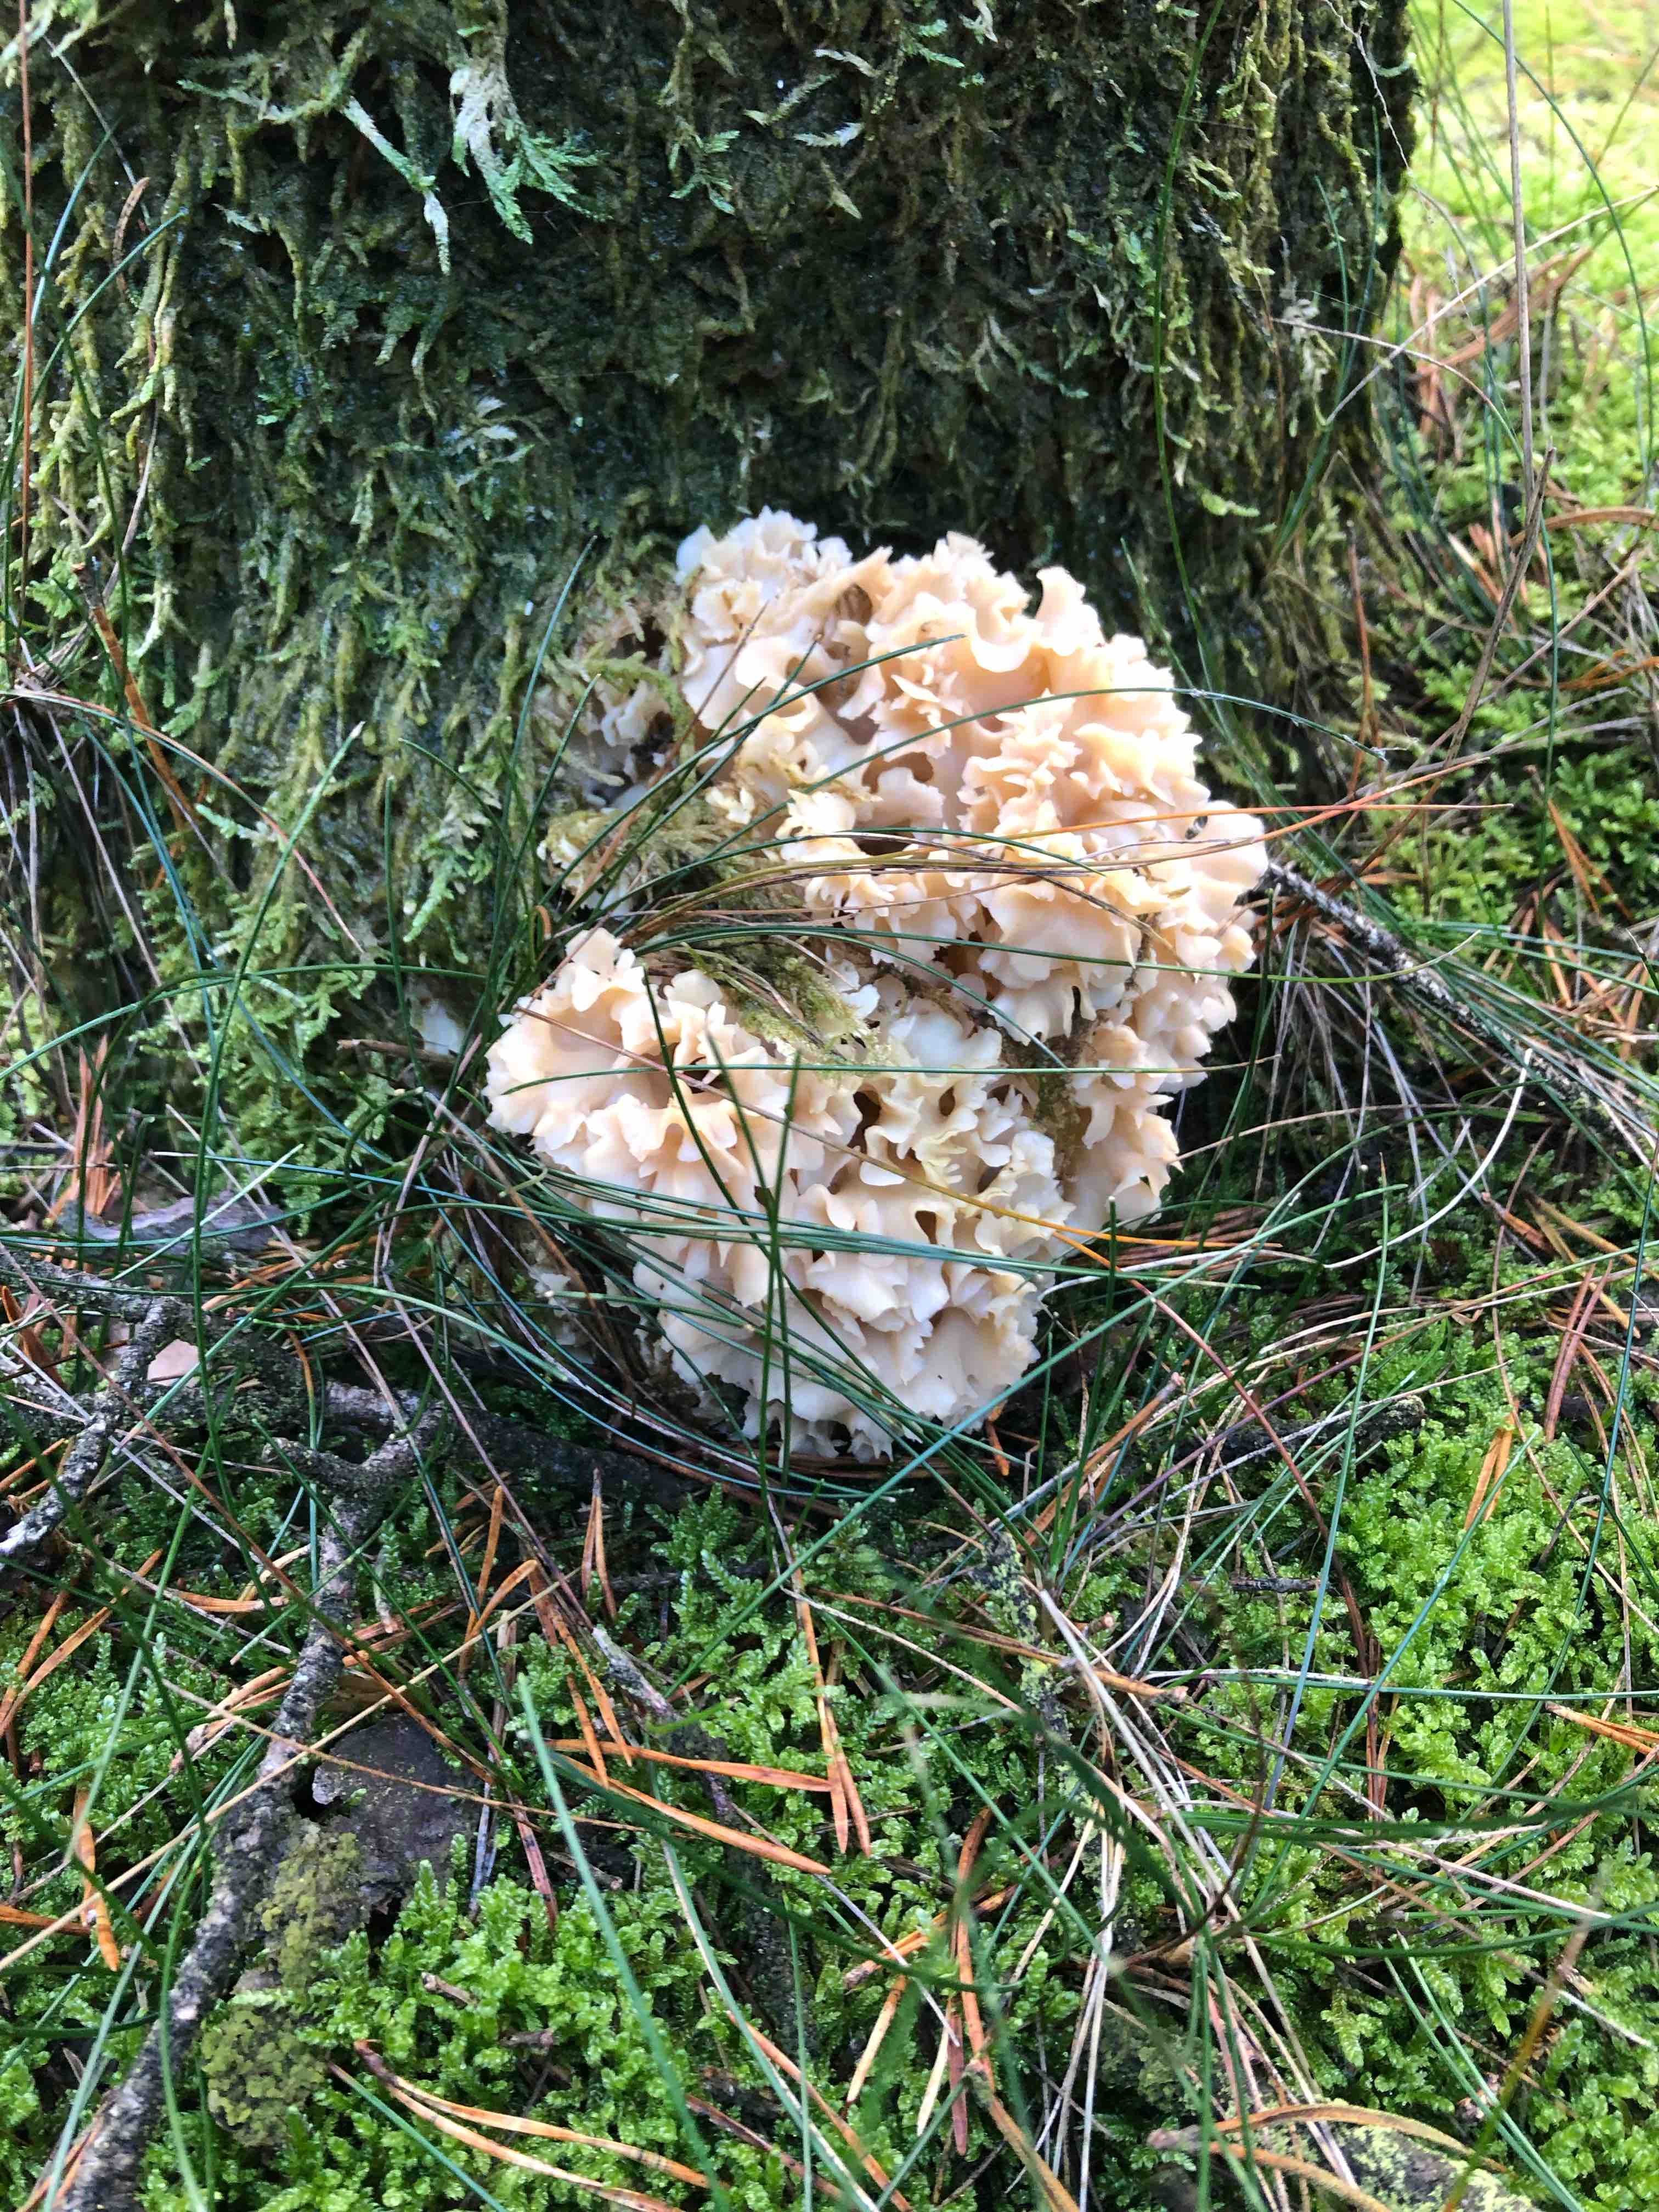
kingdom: Fungi
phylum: Basidiomycota
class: Agaricomycetes
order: Polyporales
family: Sparassidaceae
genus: Sparassis
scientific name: Sparassis crispa
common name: kruset blomkålssvamp
